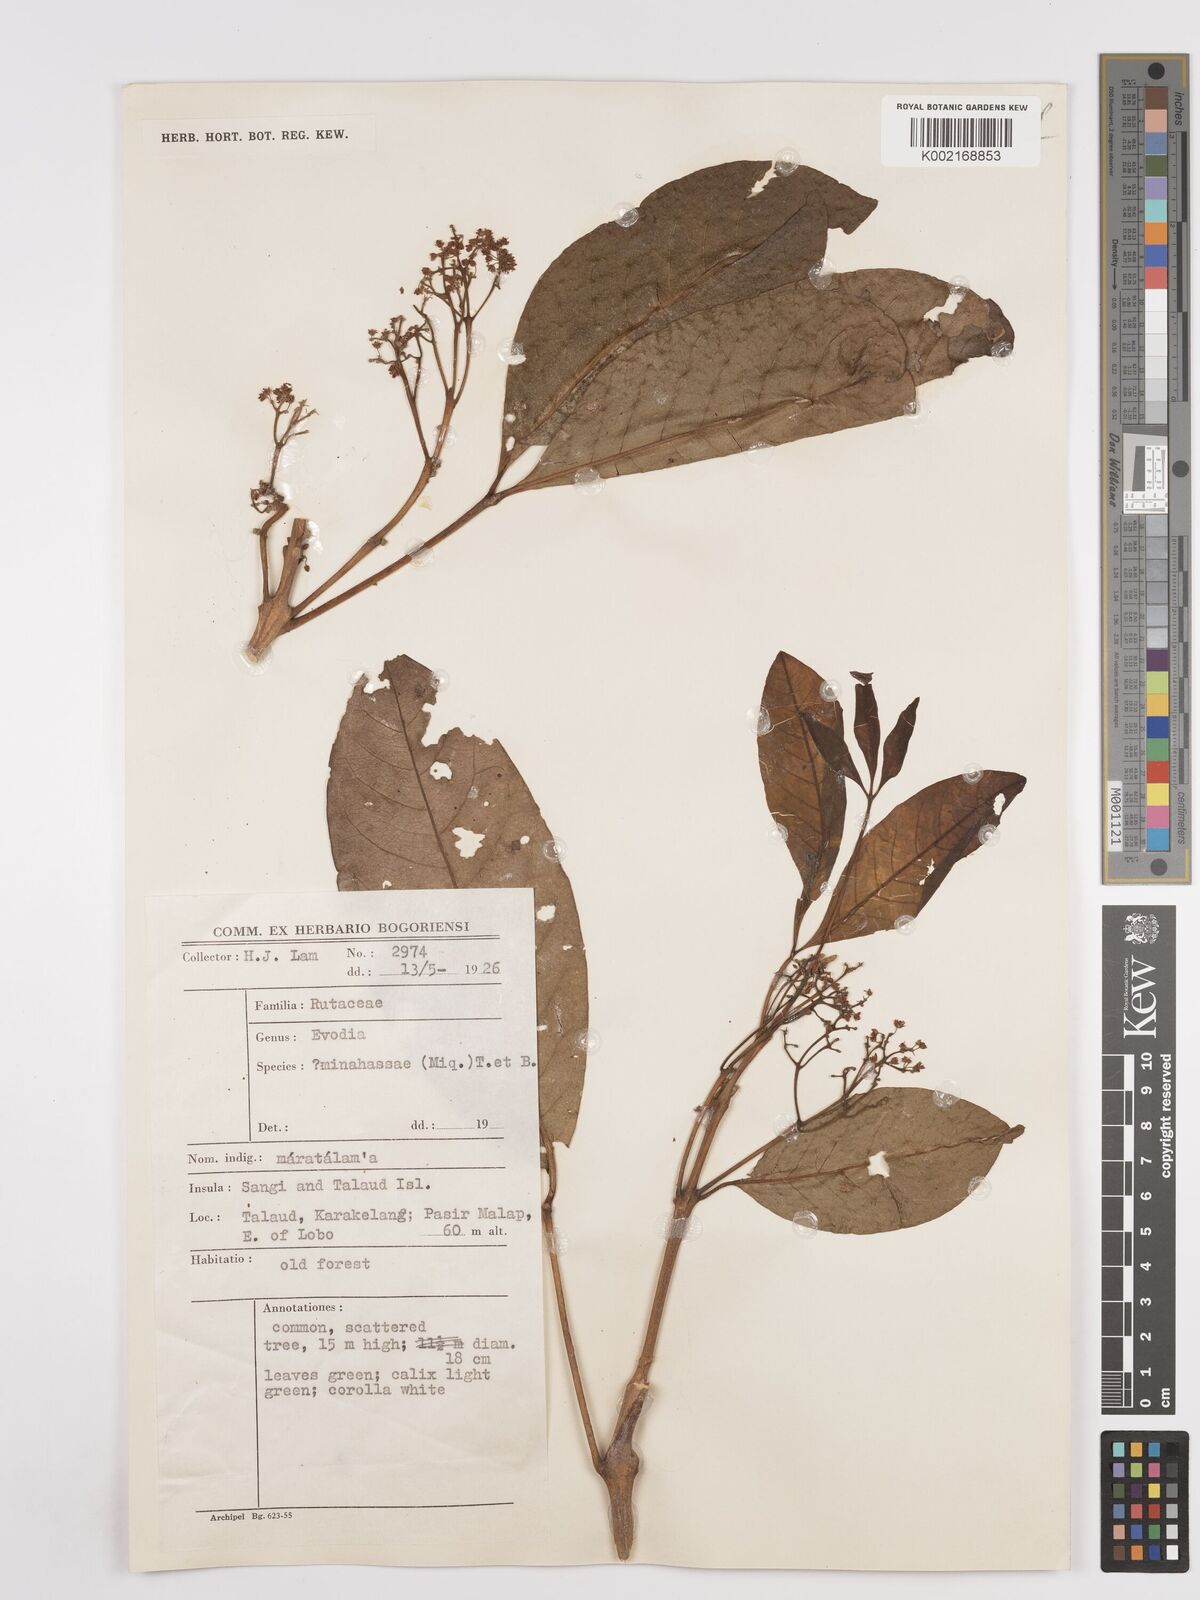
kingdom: Plantae
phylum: Tracheophyta
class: Magnoliopsida
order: Sapindales
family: Rutaceae
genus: Melicope
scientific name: Melicope triphylla
